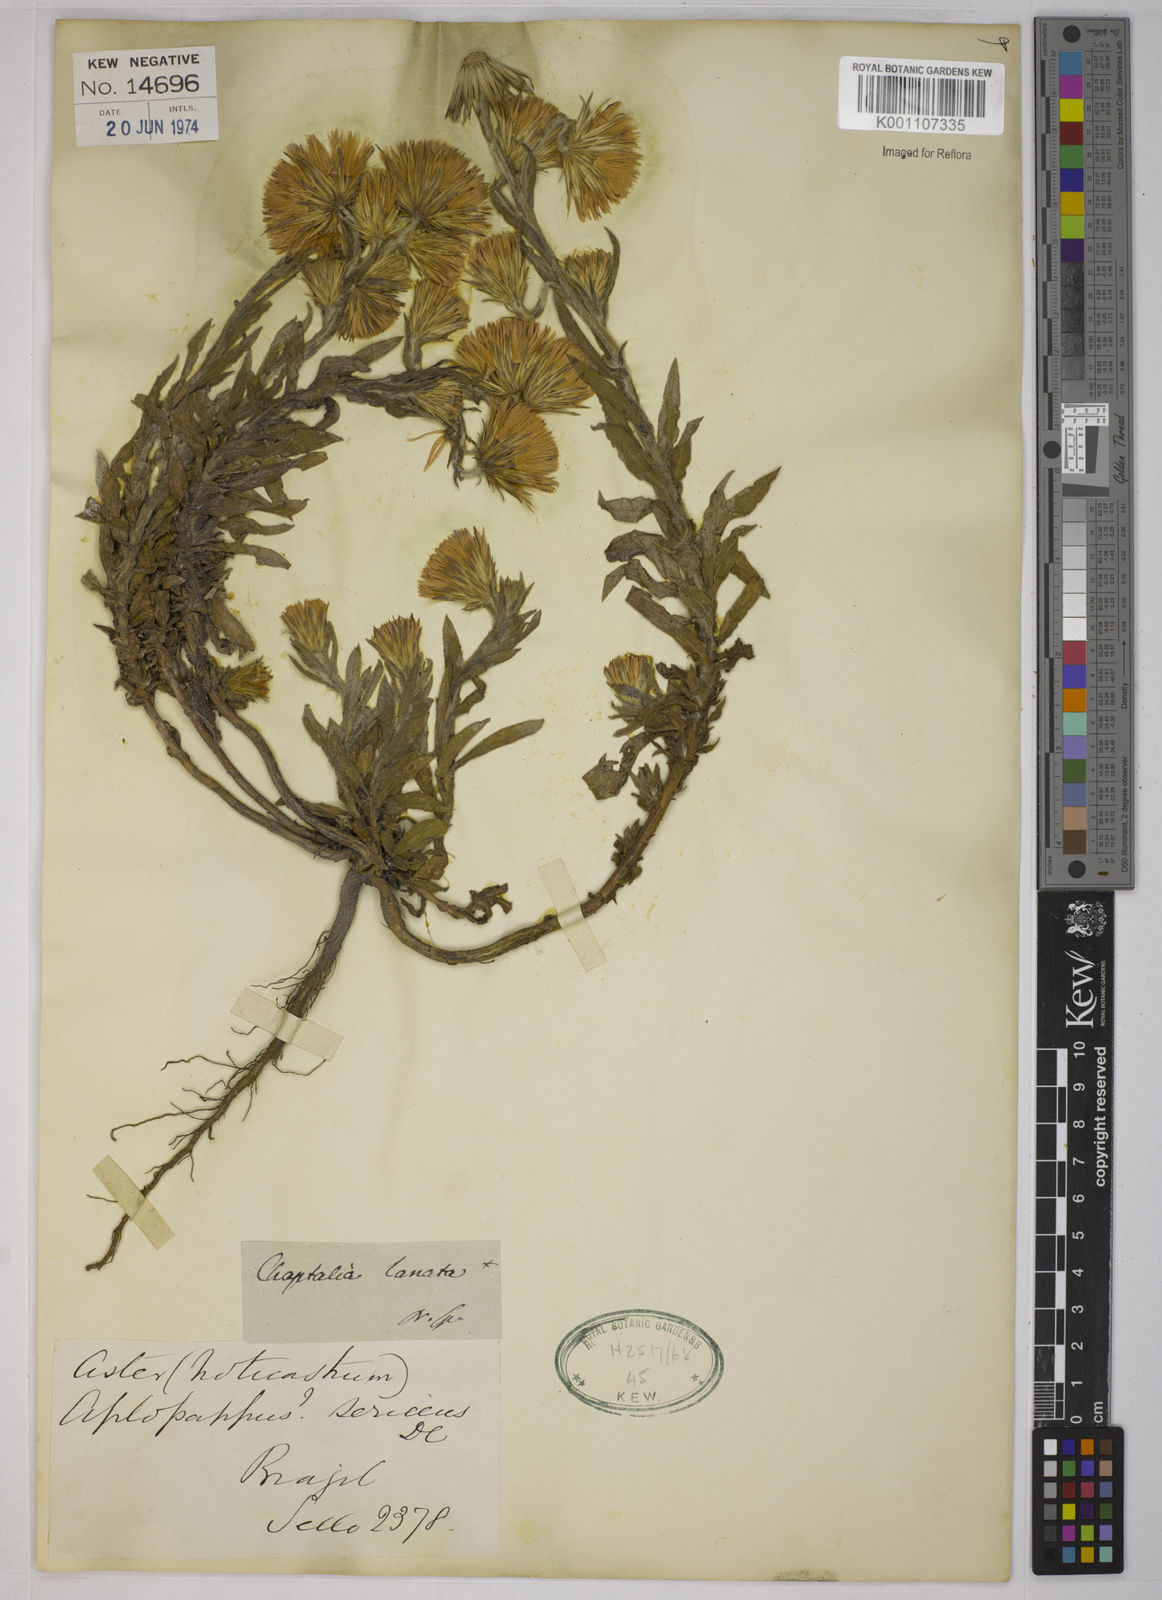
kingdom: Plantae
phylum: Tracheophyta
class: Magnoliopsida
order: Asterales
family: Asteraceae
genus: Noticastrum
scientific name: Noticastrum sericeum
